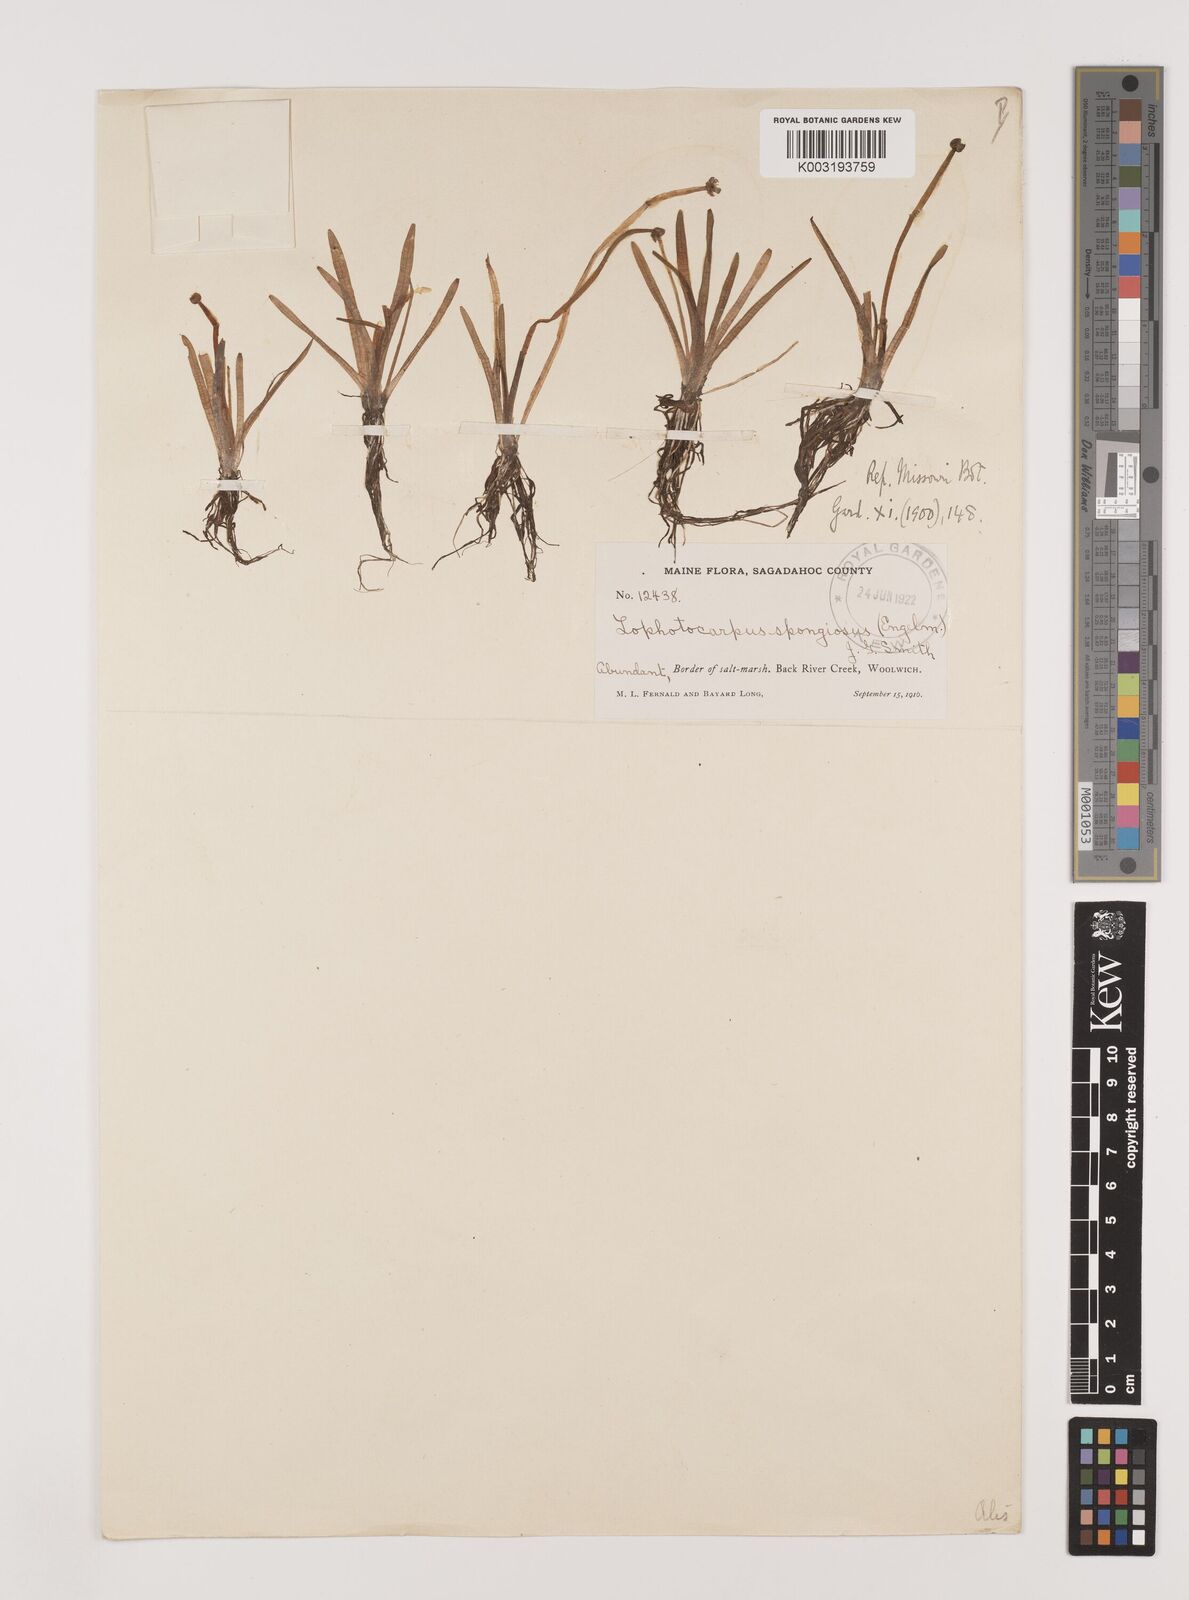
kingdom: Plantae
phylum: Tracheophyta
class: Liliopsida
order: Alismatales
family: Alismataceae
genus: Sagittaria
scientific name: Sagittaria montevidensis
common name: Giant arrowhead
